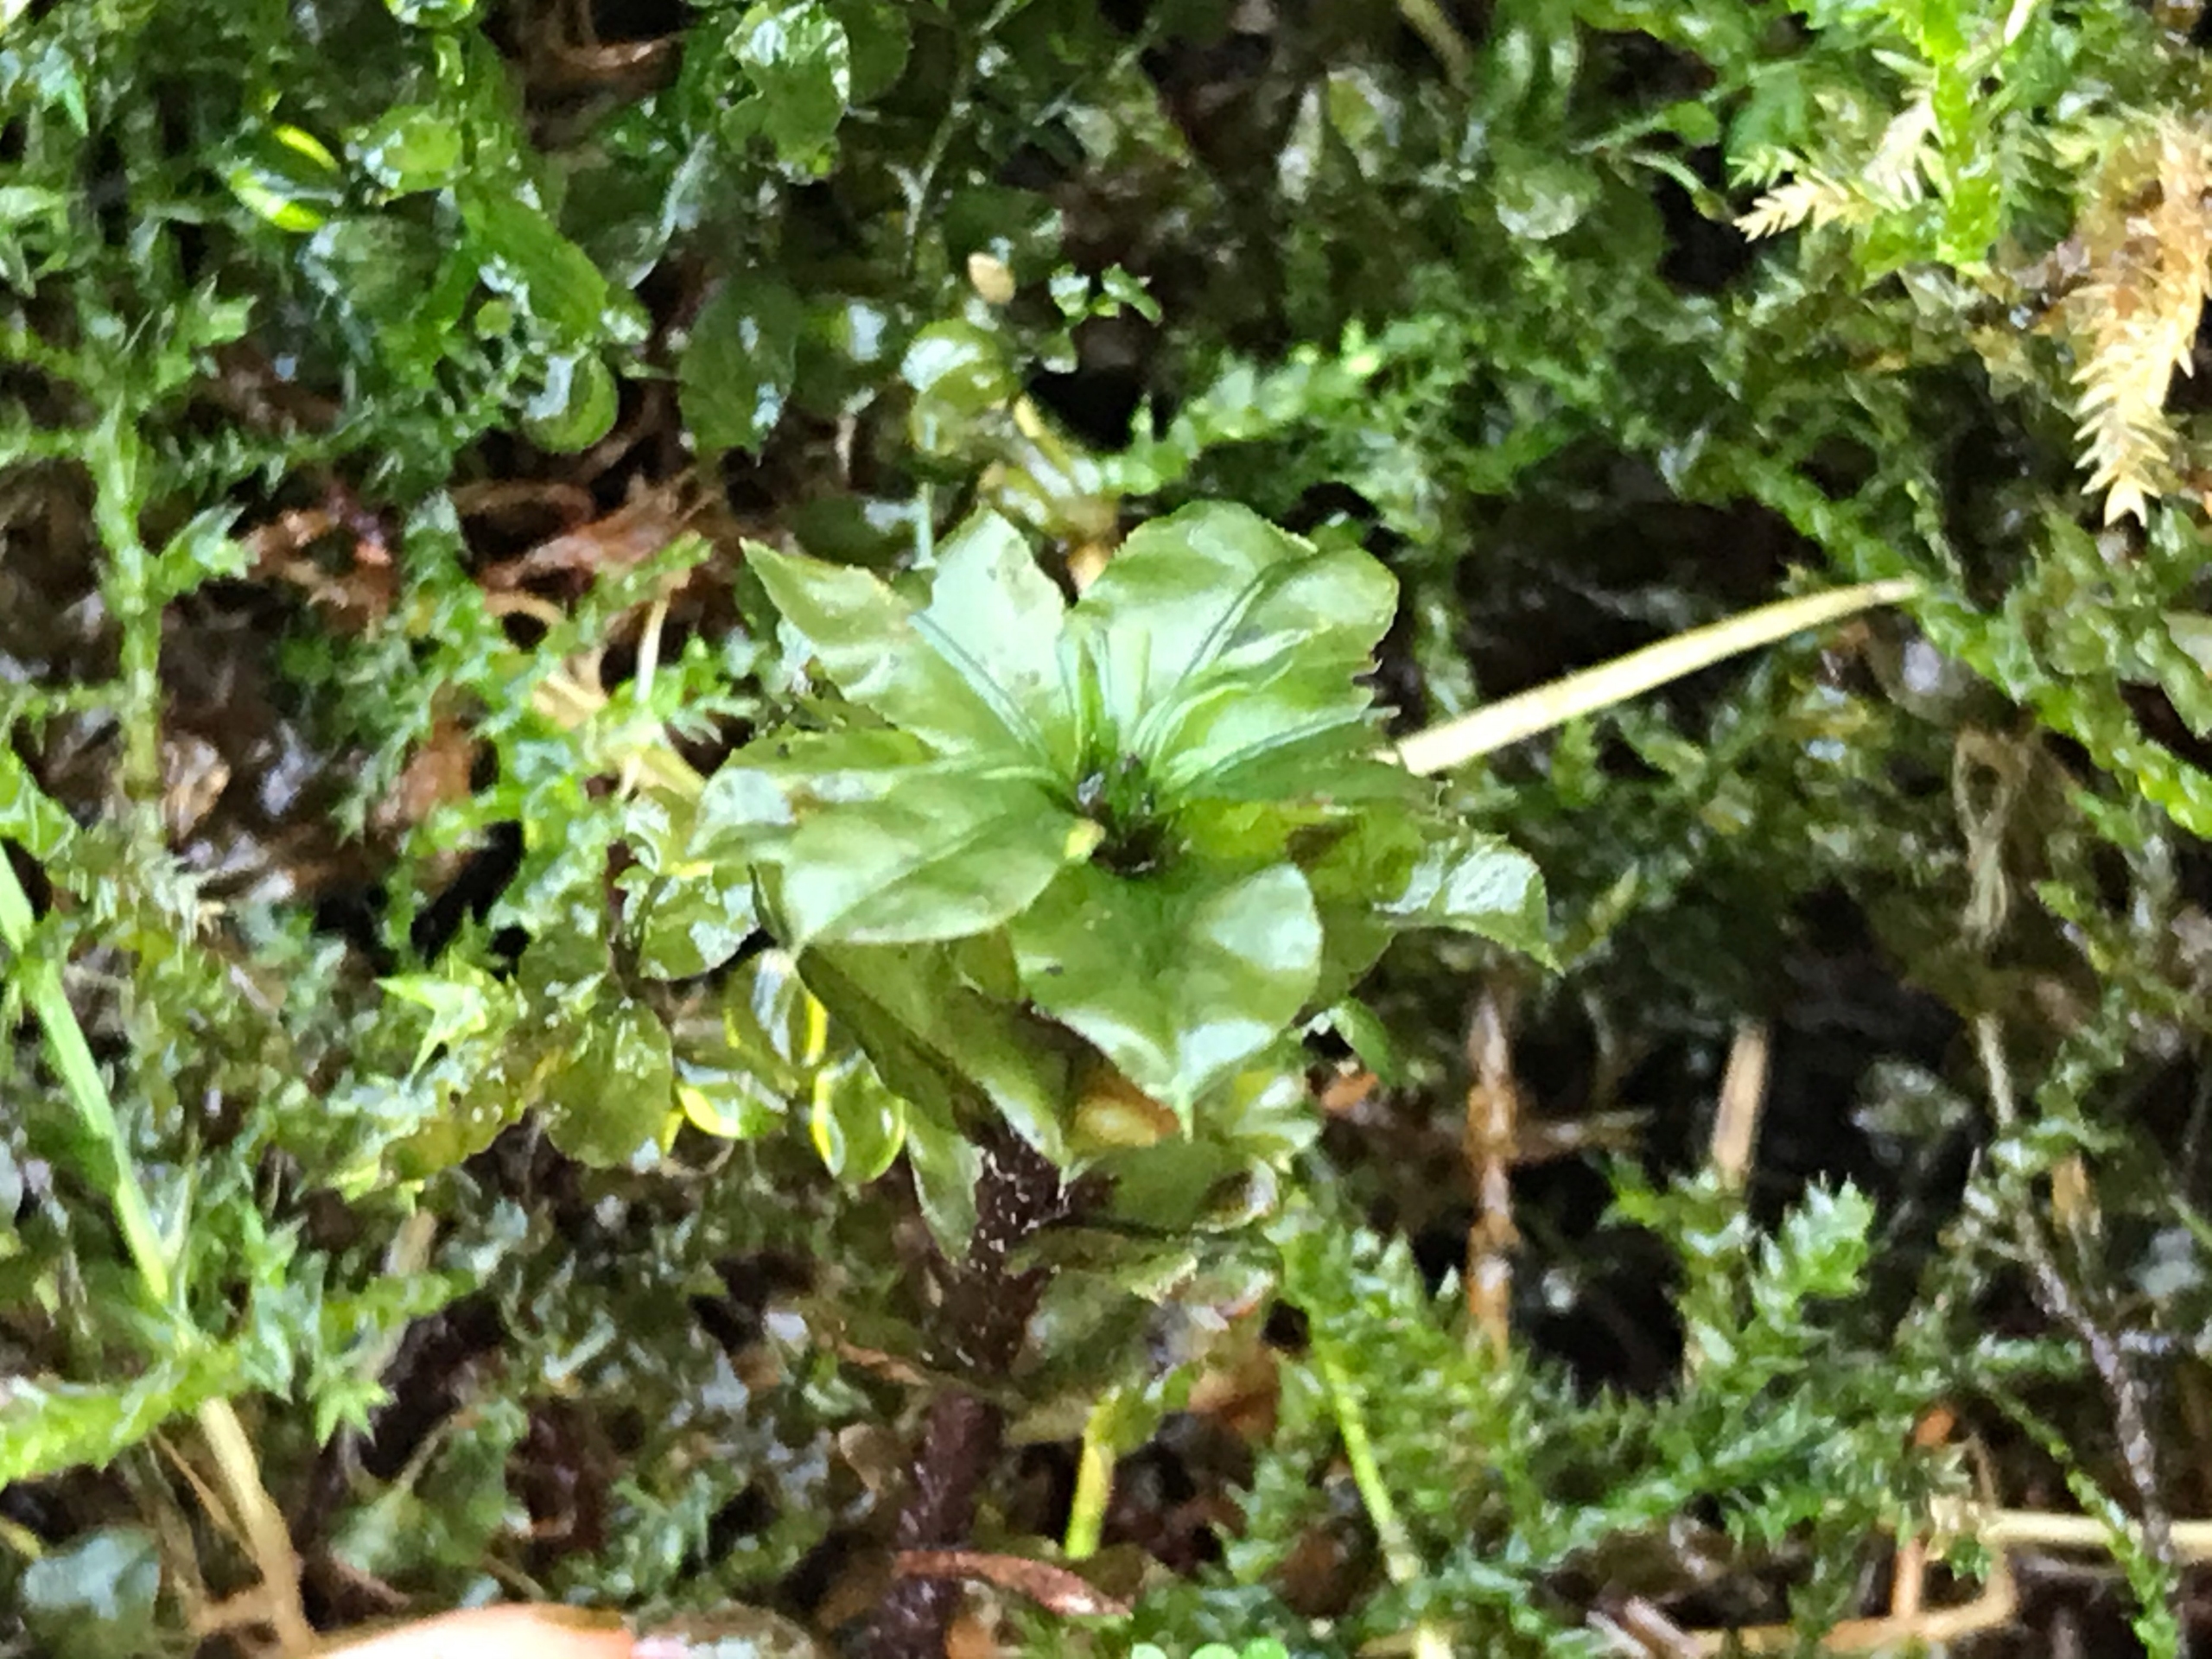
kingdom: Plantae
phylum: Bryophyta
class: Bryopsida
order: Bryales
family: Mniaceae
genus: Plagiomnium
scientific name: Plagiomnium
